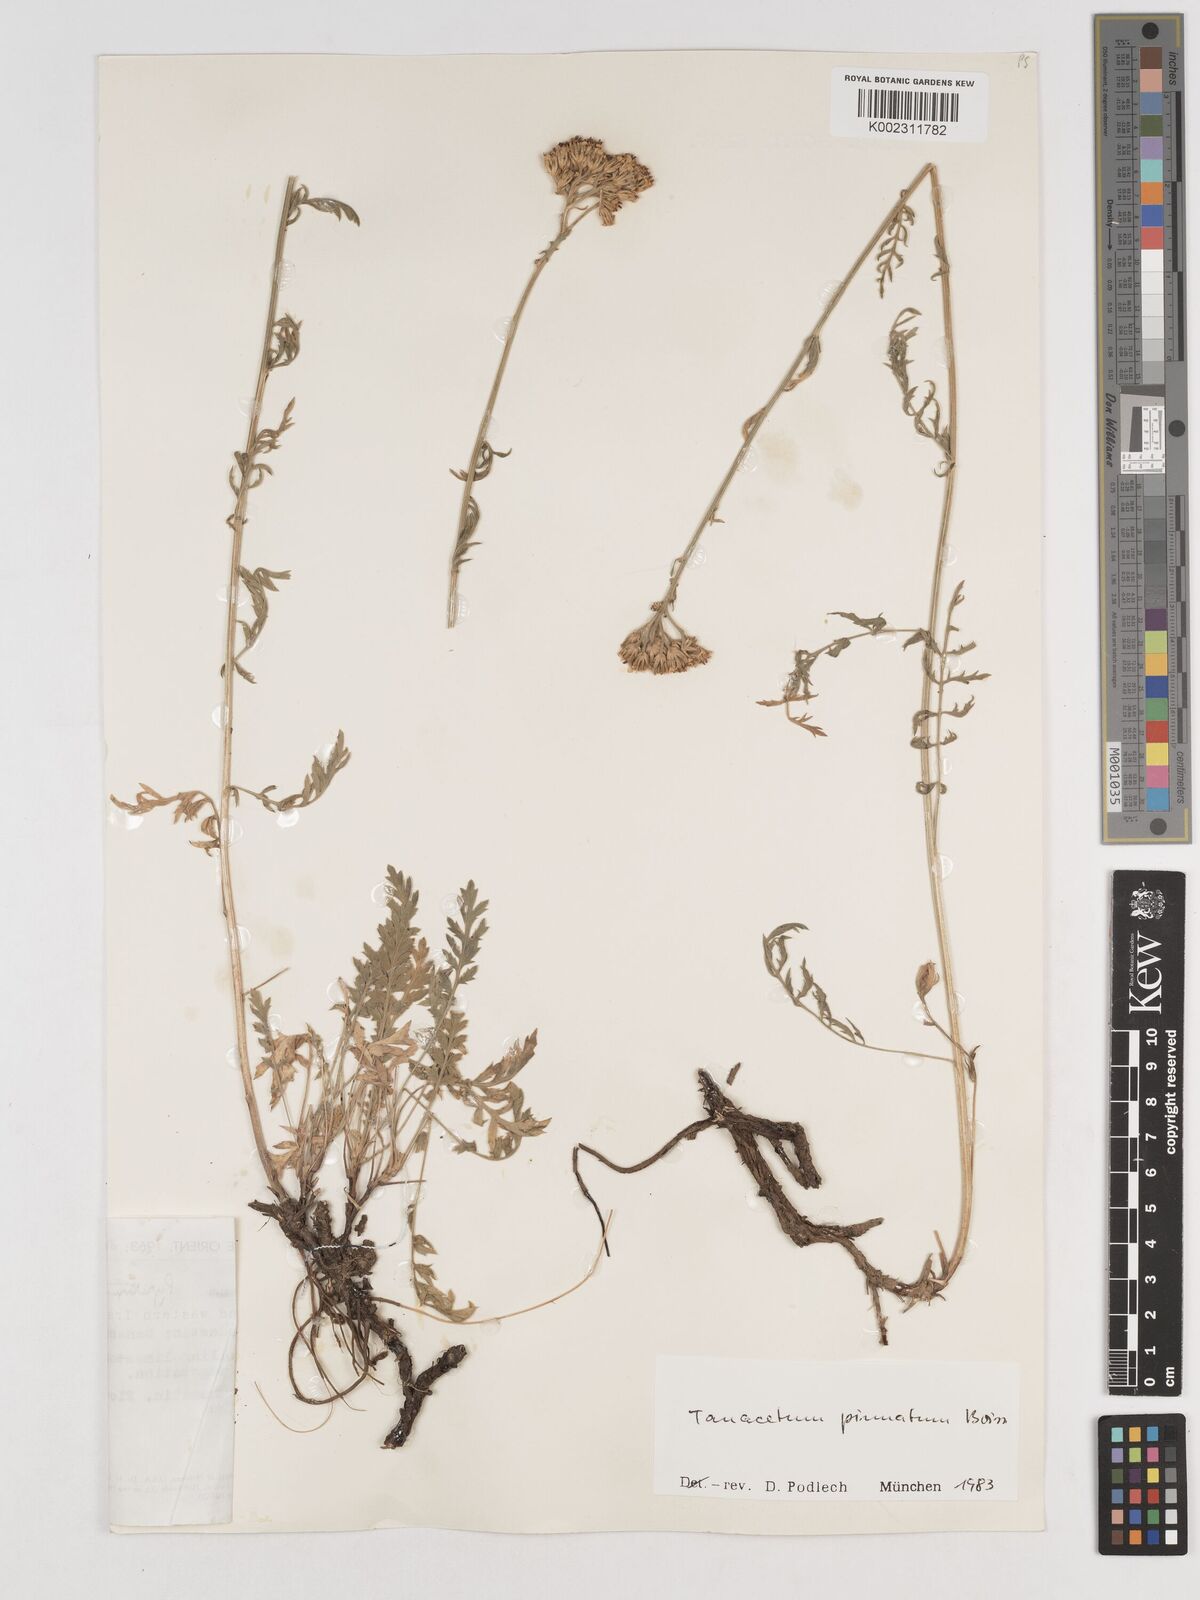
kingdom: Plantae
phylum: Tracheophyta
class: Magnoliopsida
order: Asterales
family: Asteraceae
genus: Tanacetum
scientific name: Tanacetum pinnatum
